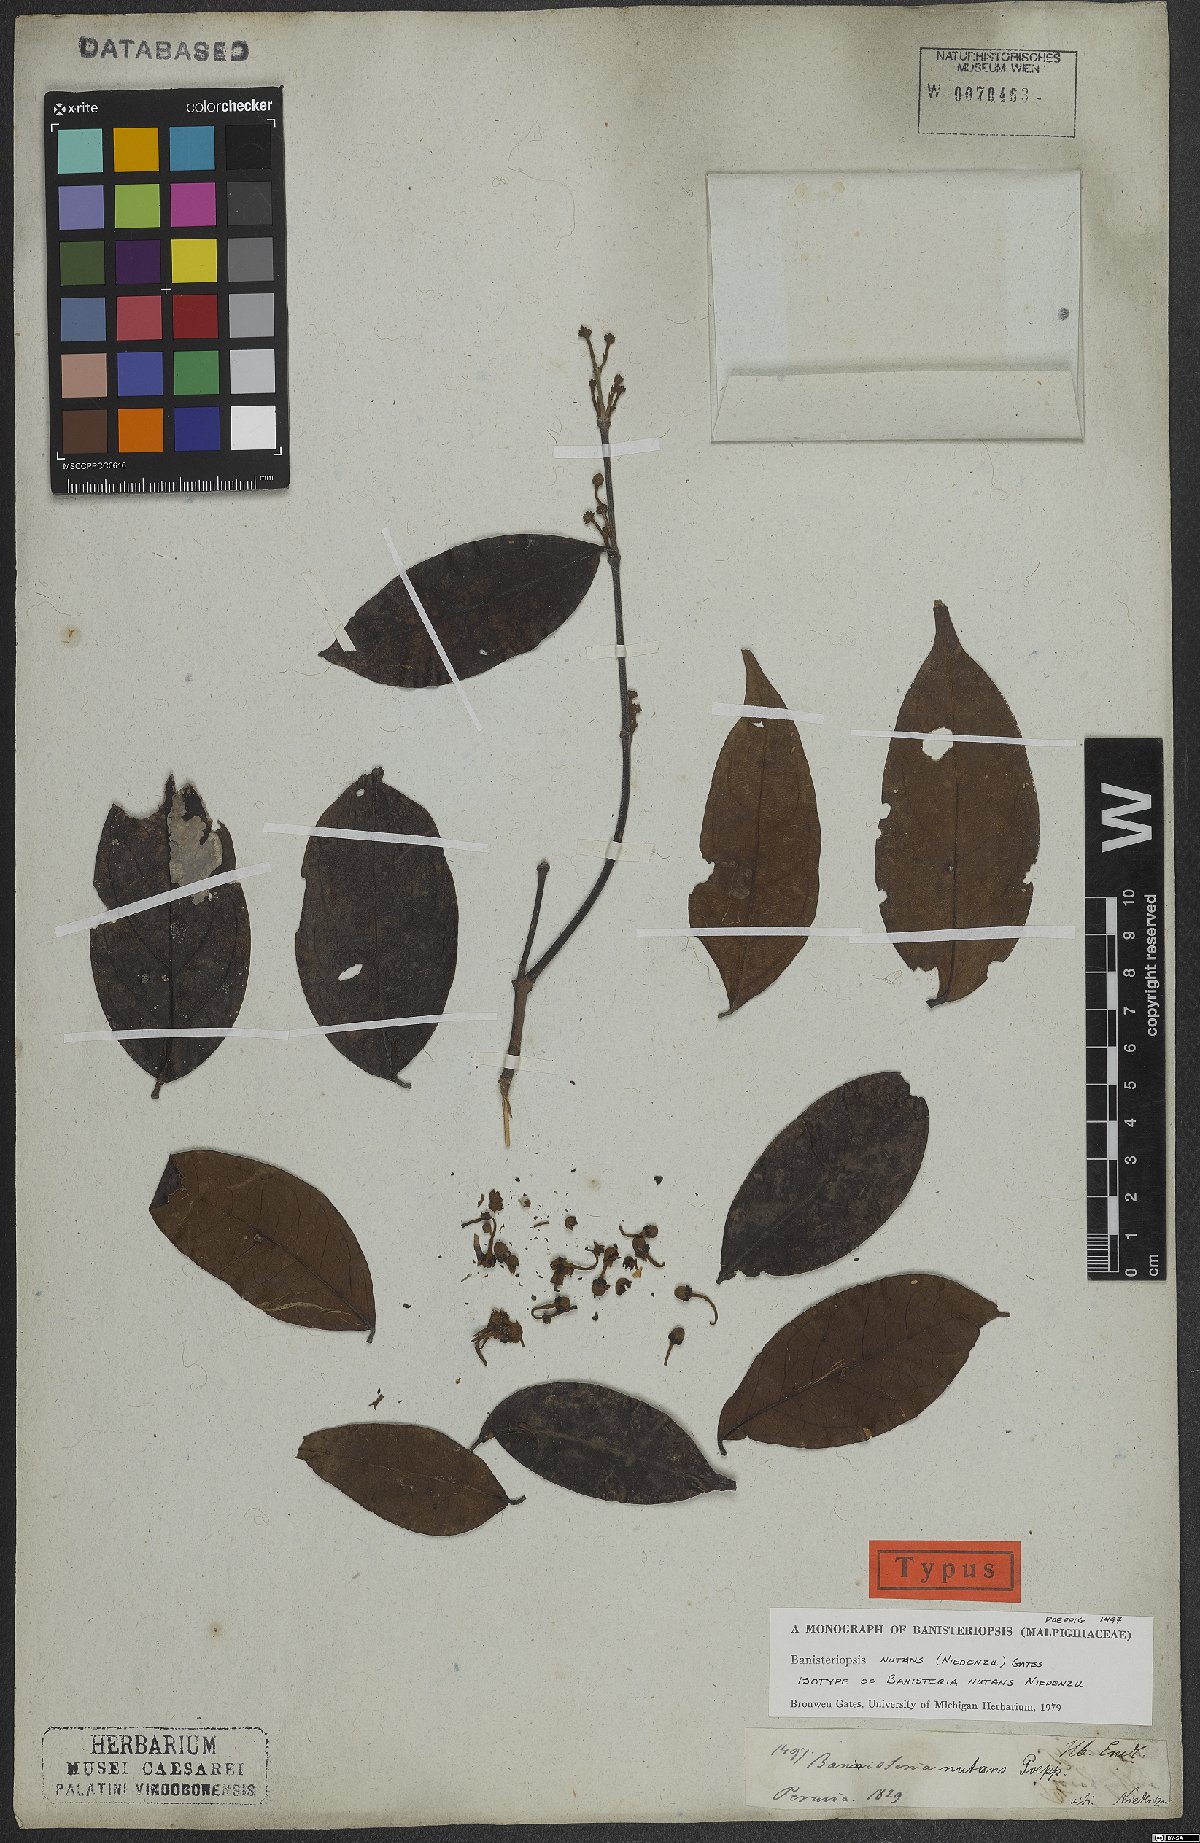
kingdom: Plantae
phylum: Tracheophyta
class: Magnoliopsida
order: Malpighiales
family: Malpighiaceae
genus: Diplopterys
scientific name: Diplopterys nutans
